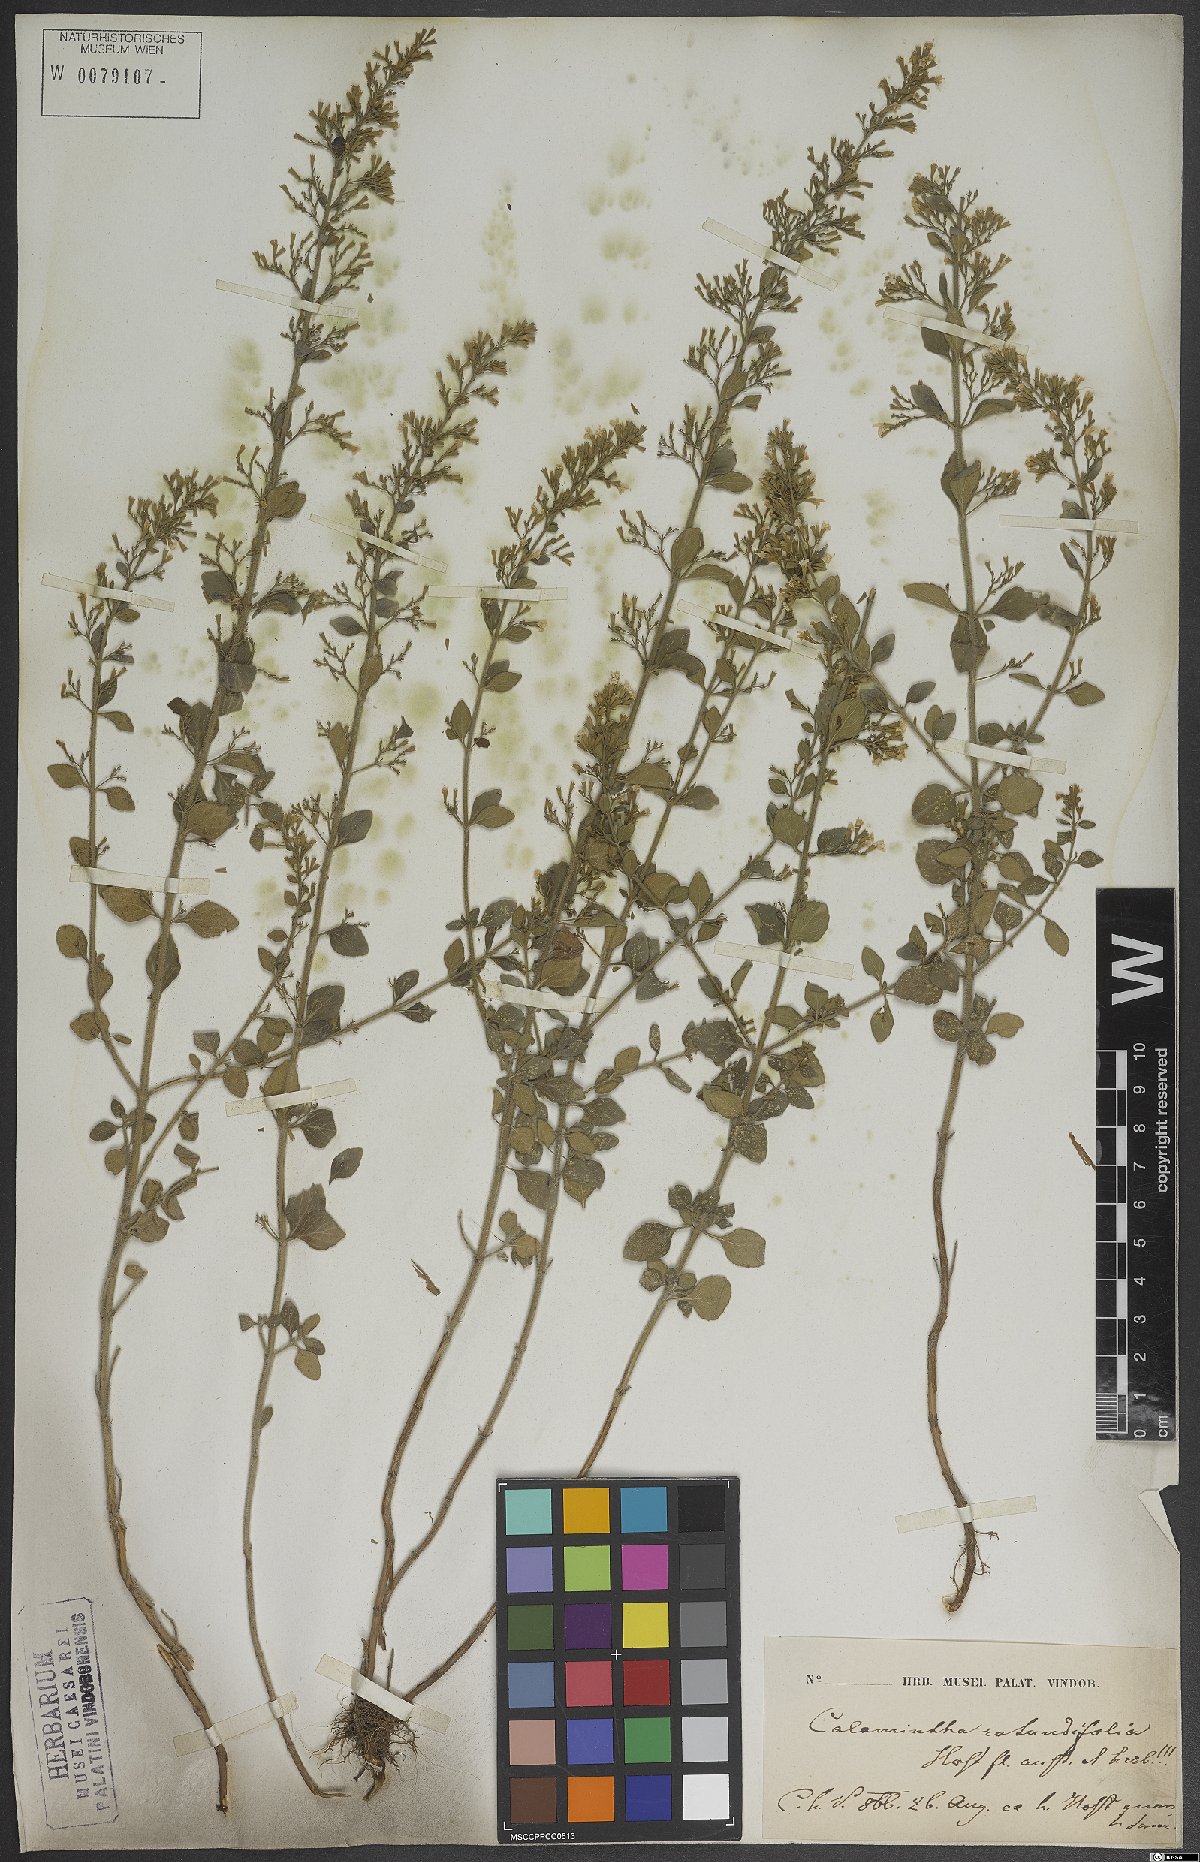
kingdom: Plantae
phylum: Tracheophyta
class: Magnoliopsida
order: Lamiales
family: Lamiaceae
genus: Clinopodium
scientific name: Clinopodium nepeta
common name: Lesser calamint
